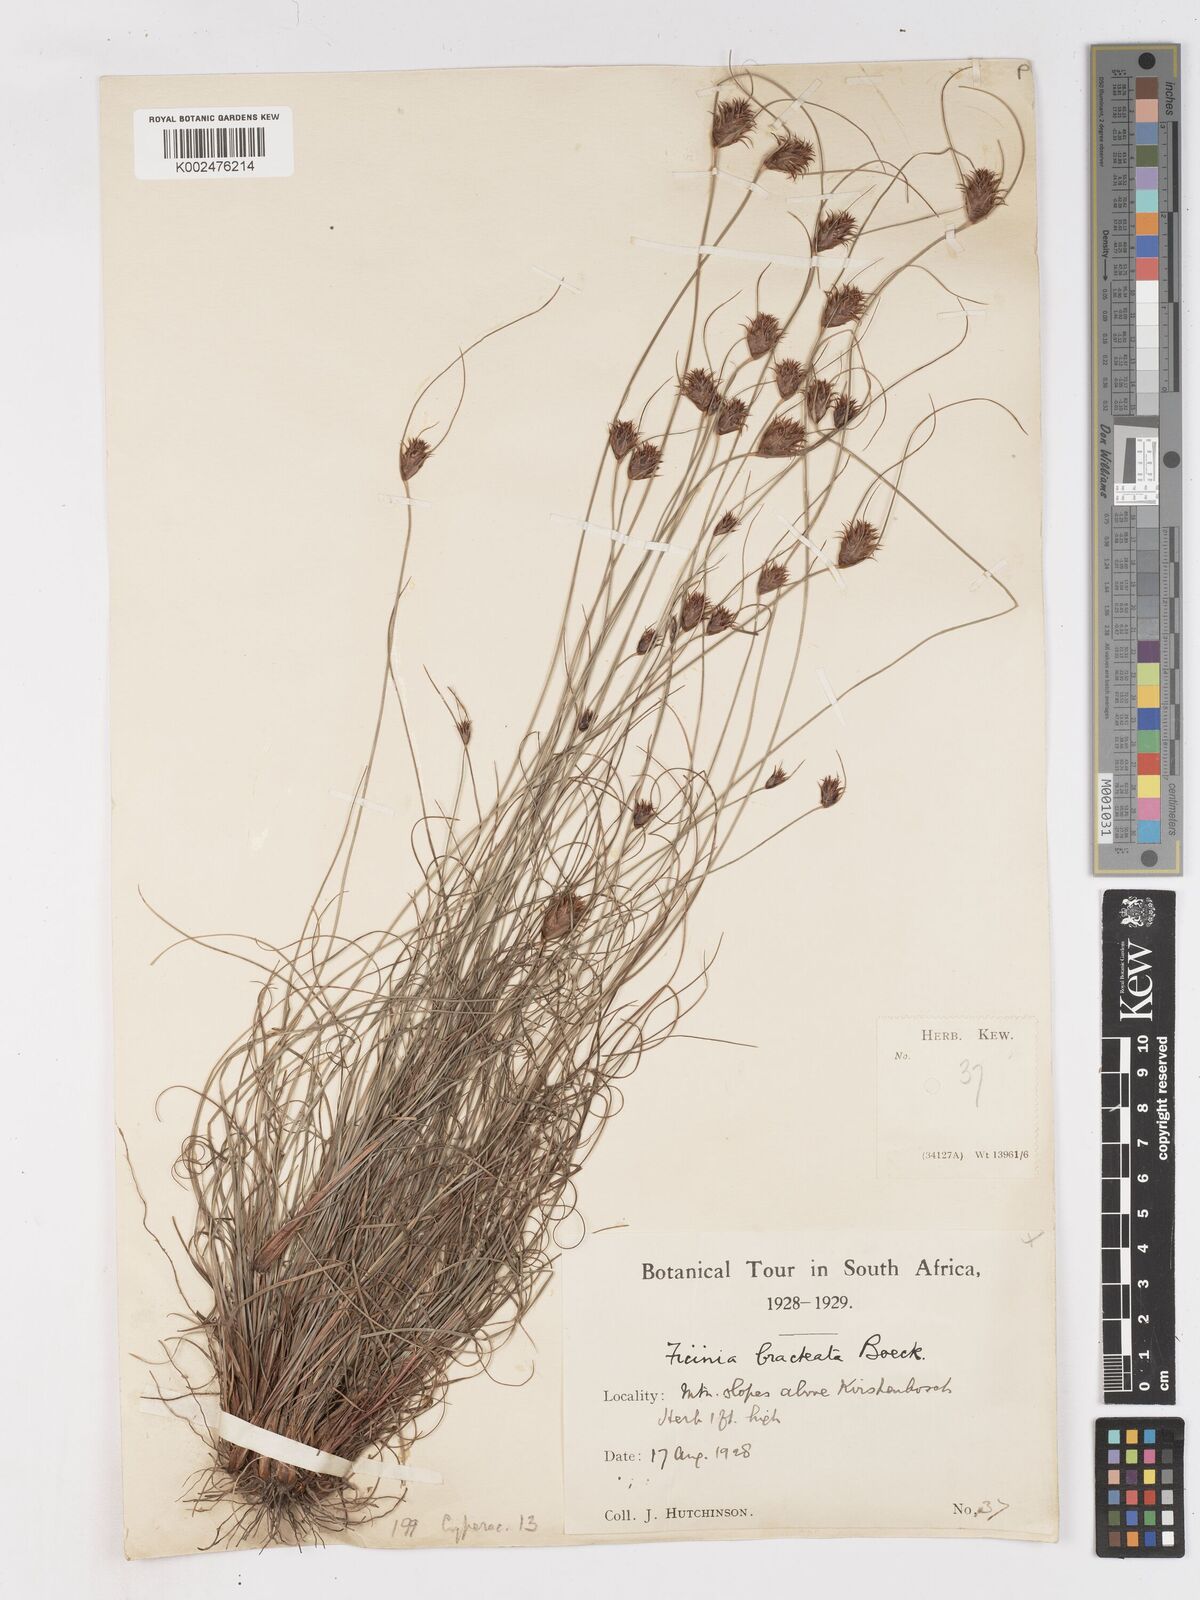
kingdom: Plantae
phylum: Tracheophyta
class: Liliopsida
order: Poales
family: Cyperaceae
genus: Ficinia
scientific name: Ficinia nigrescens
